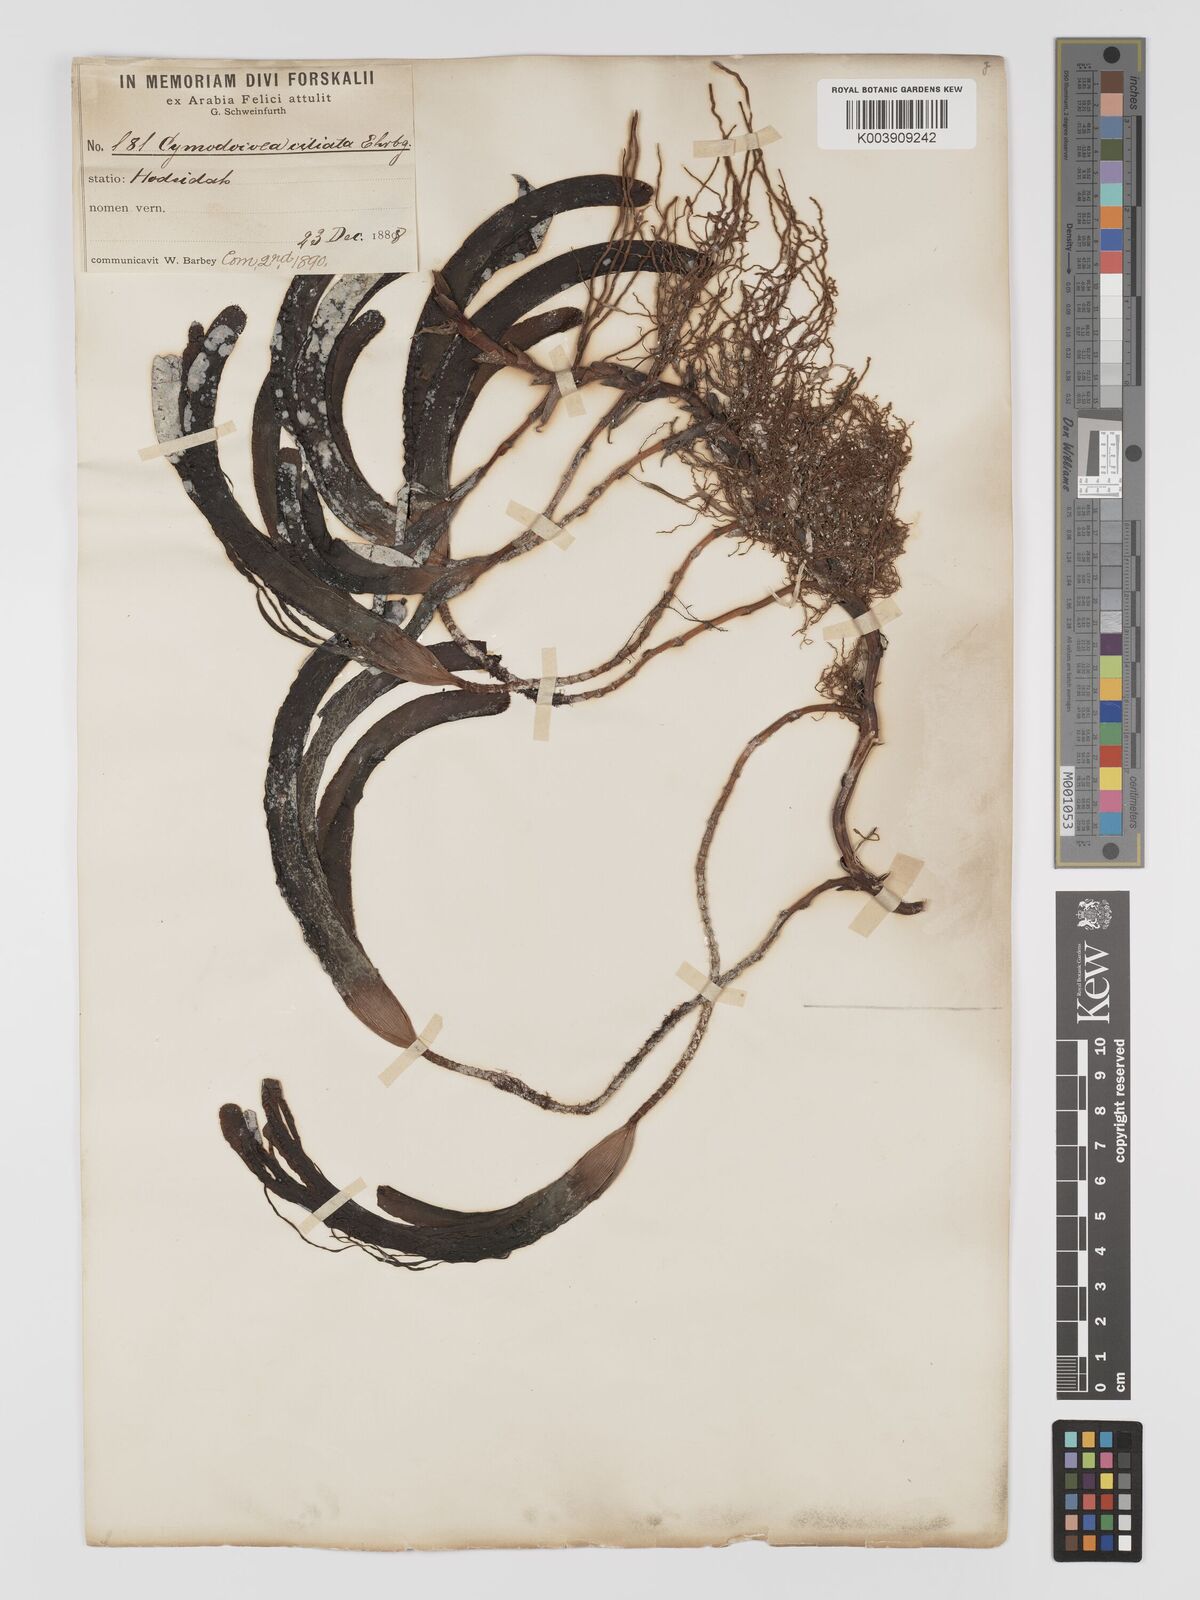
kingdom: Plantae
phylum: Tracheophyta
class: Liliopsida
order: Alismatales
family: Cymodoceaceae
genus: Thalassodendron
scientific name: Thalassodendron ciliatum
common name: Species code: tc
